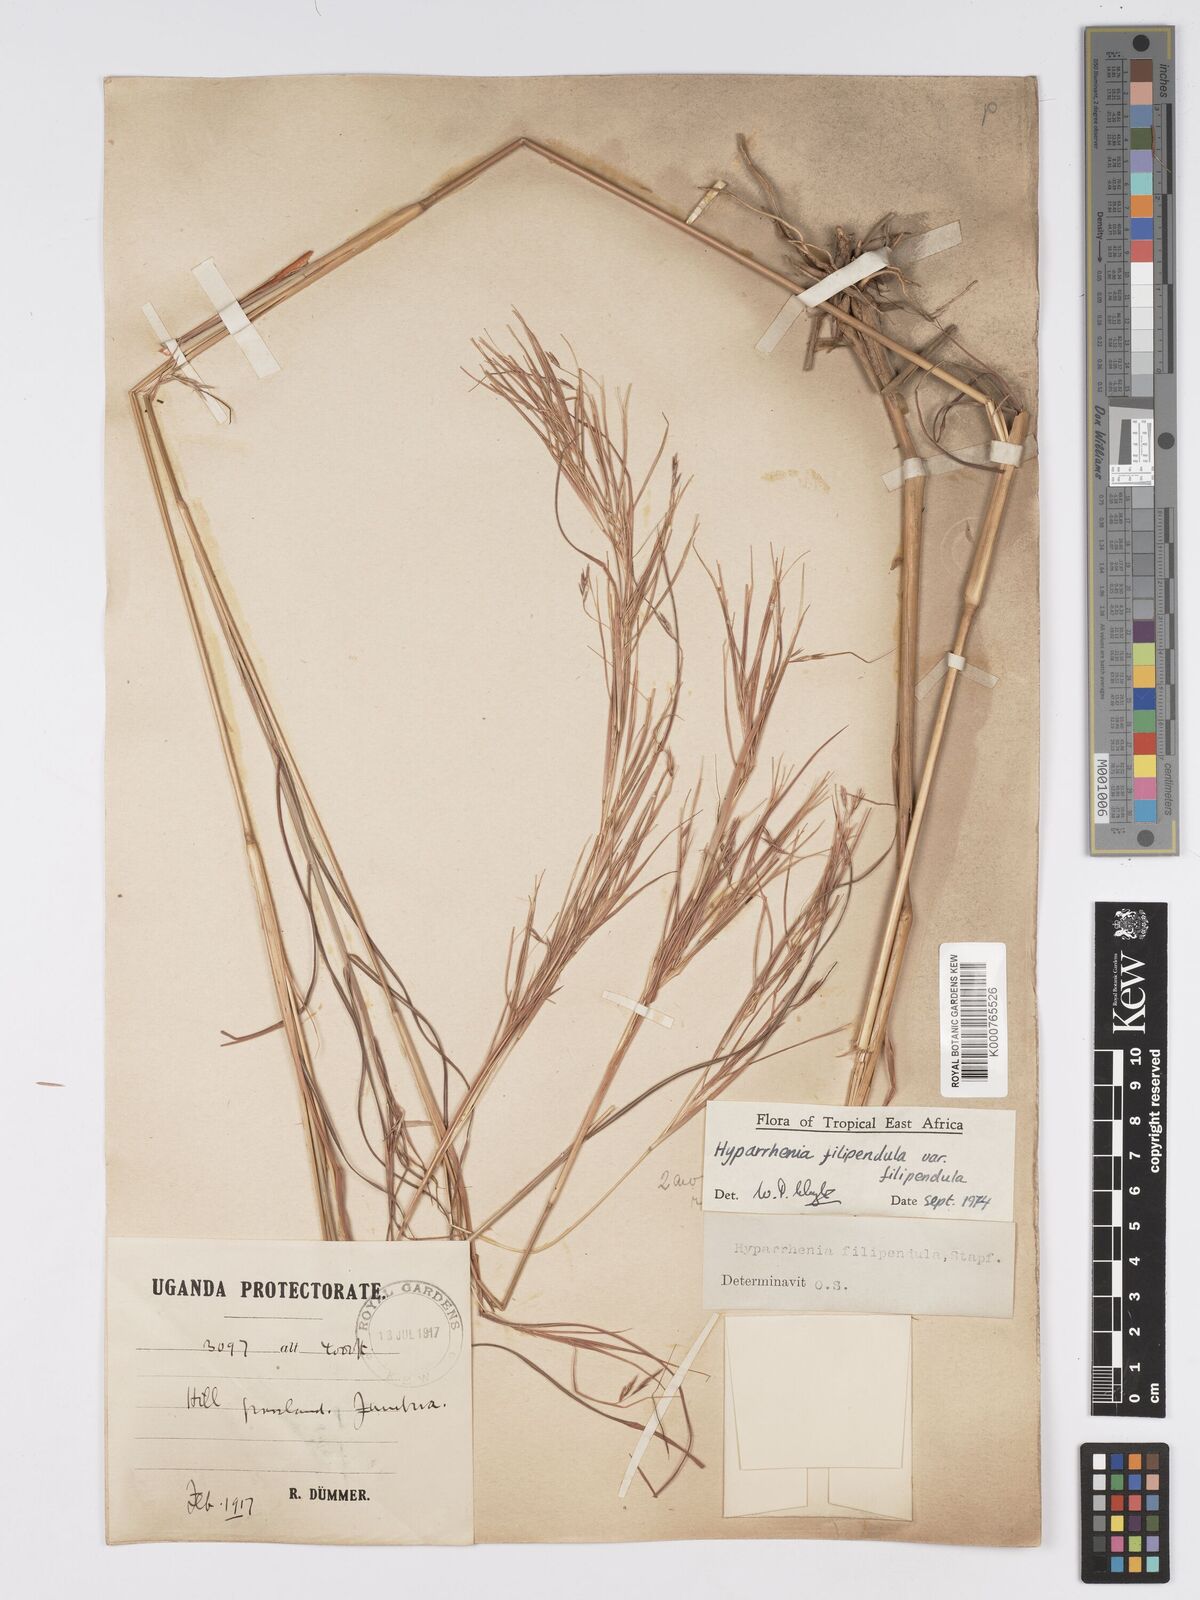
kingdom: Plantae
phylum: Tracheophyta
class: Liliopsida
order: Poales
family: Poaceae
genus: Hyparrhenia
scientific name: Hyparrhenia filipendula
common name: Tambookie grass
